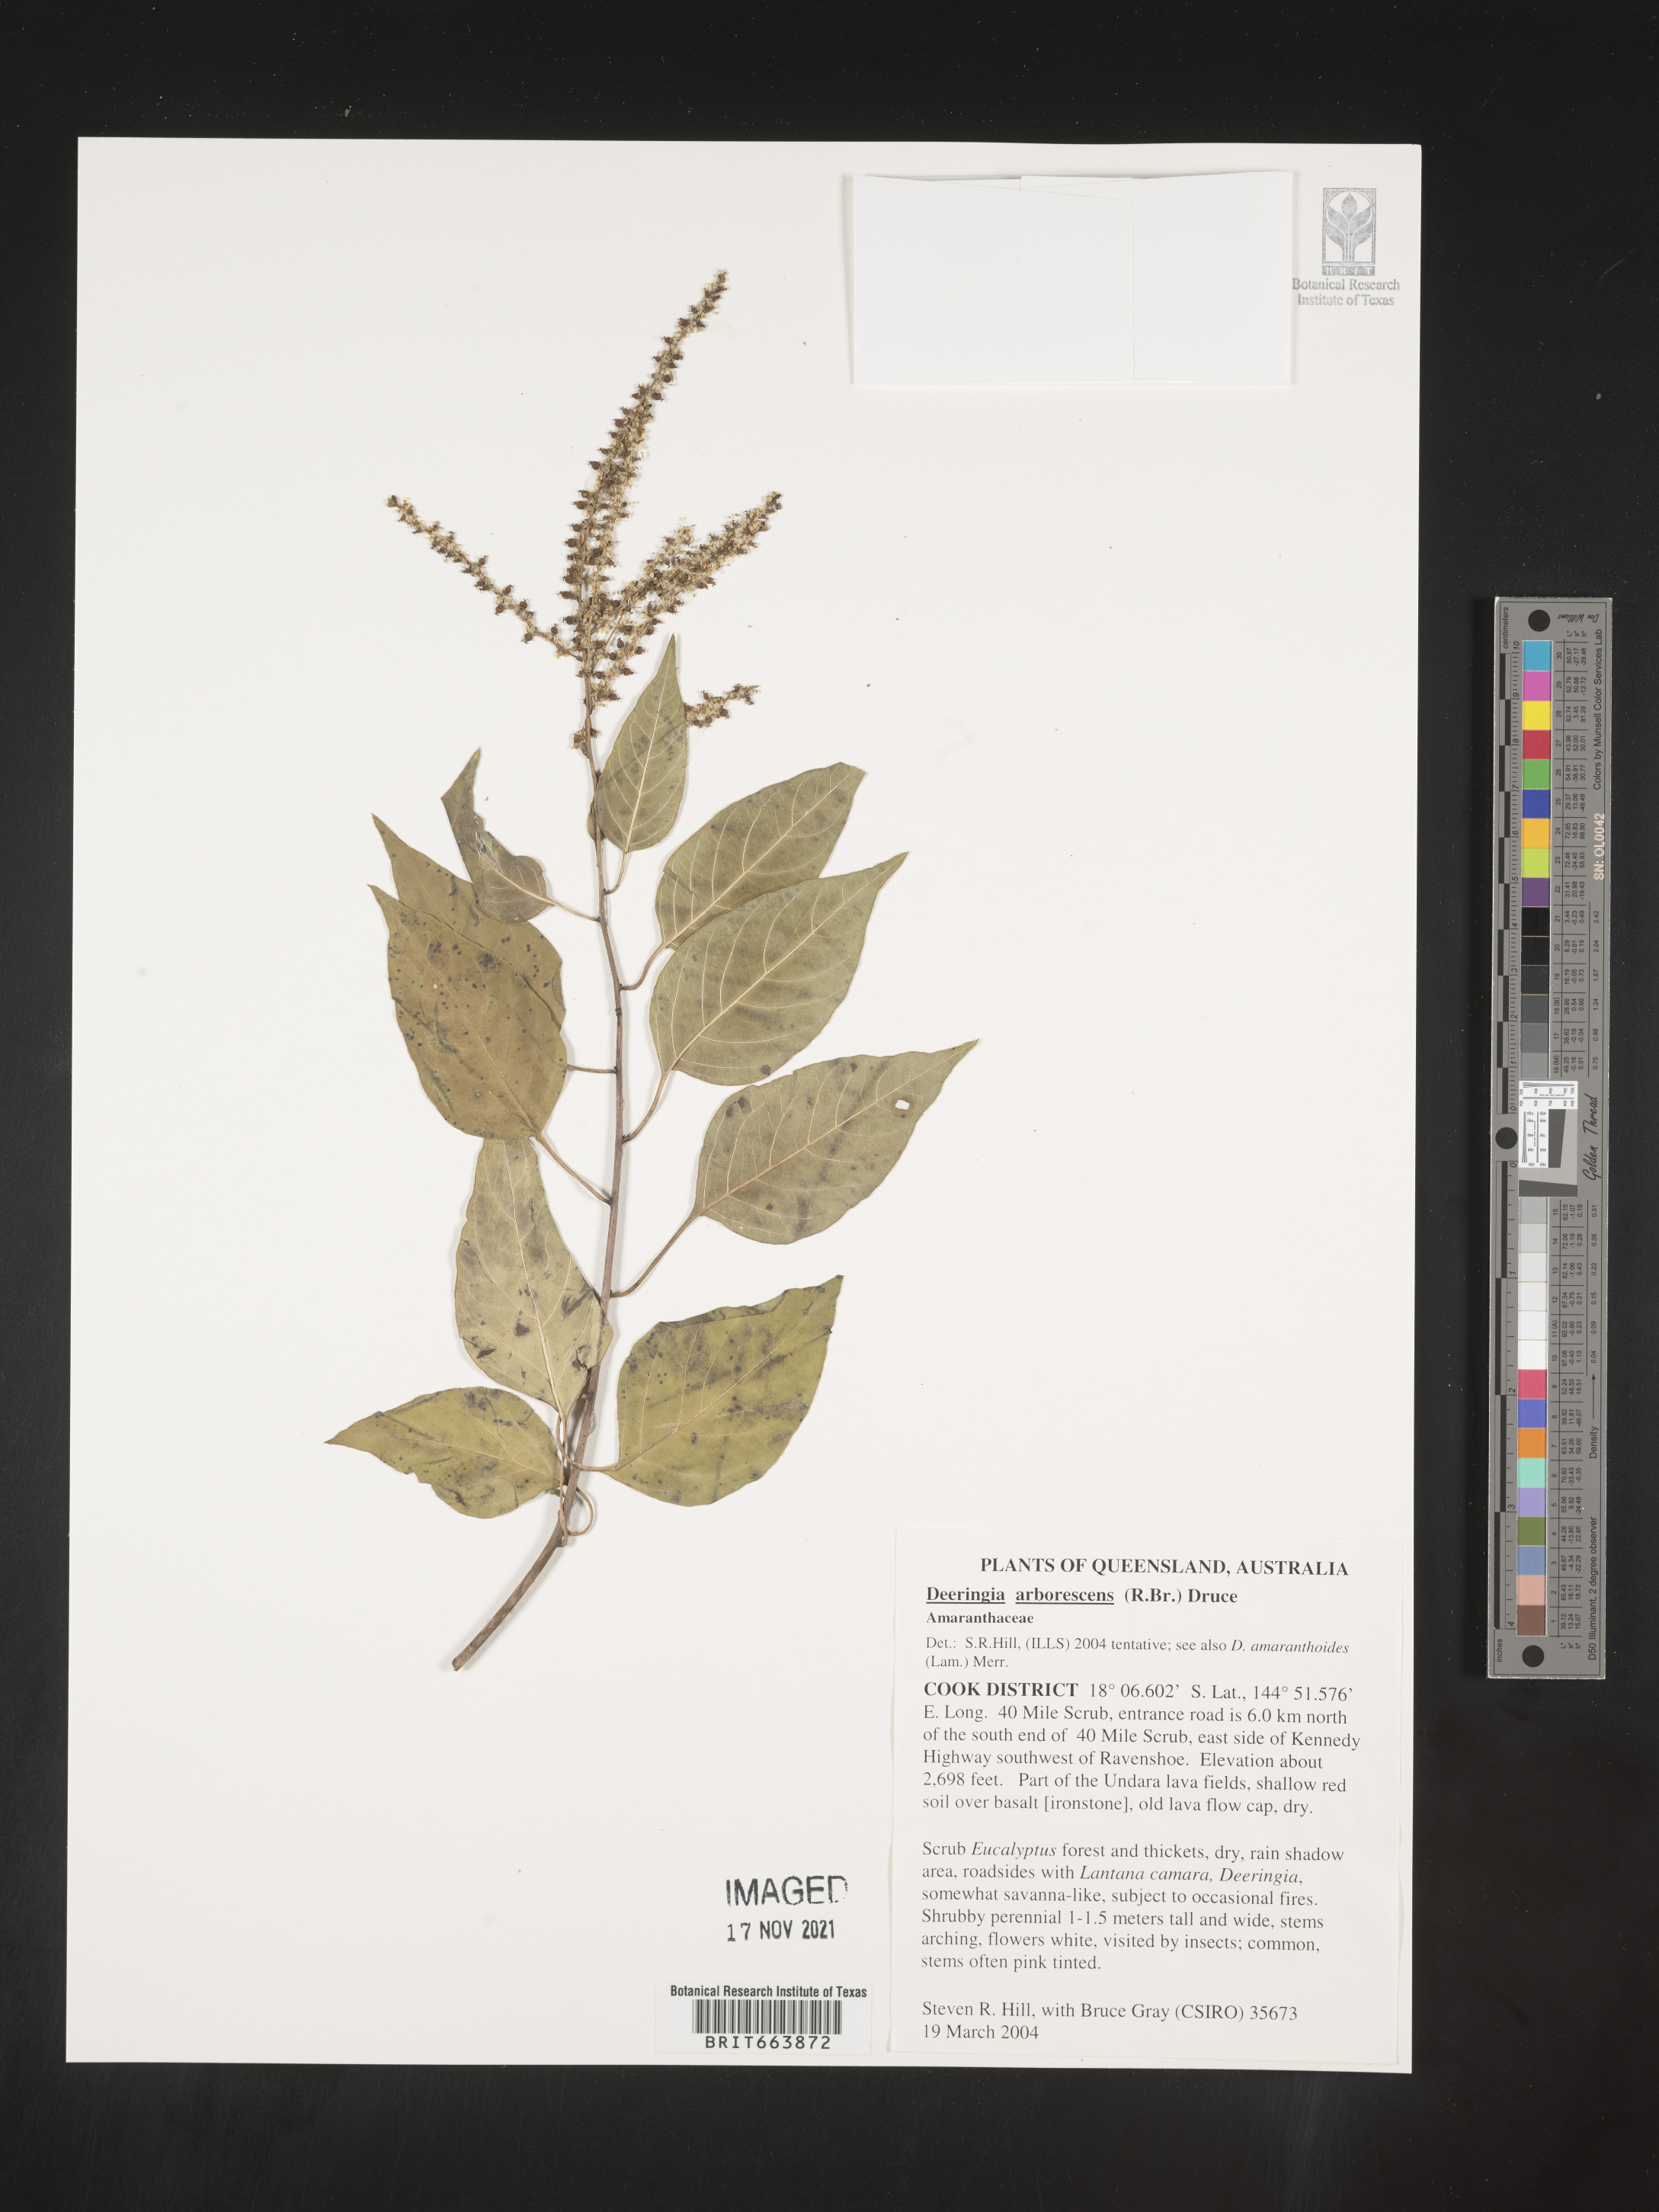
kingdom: Plantae
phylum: Tracheophyta
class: Magnoliopsida
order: Caryophyllales
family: Amaranthaceae
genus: Deeringia
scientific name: Deeringia
